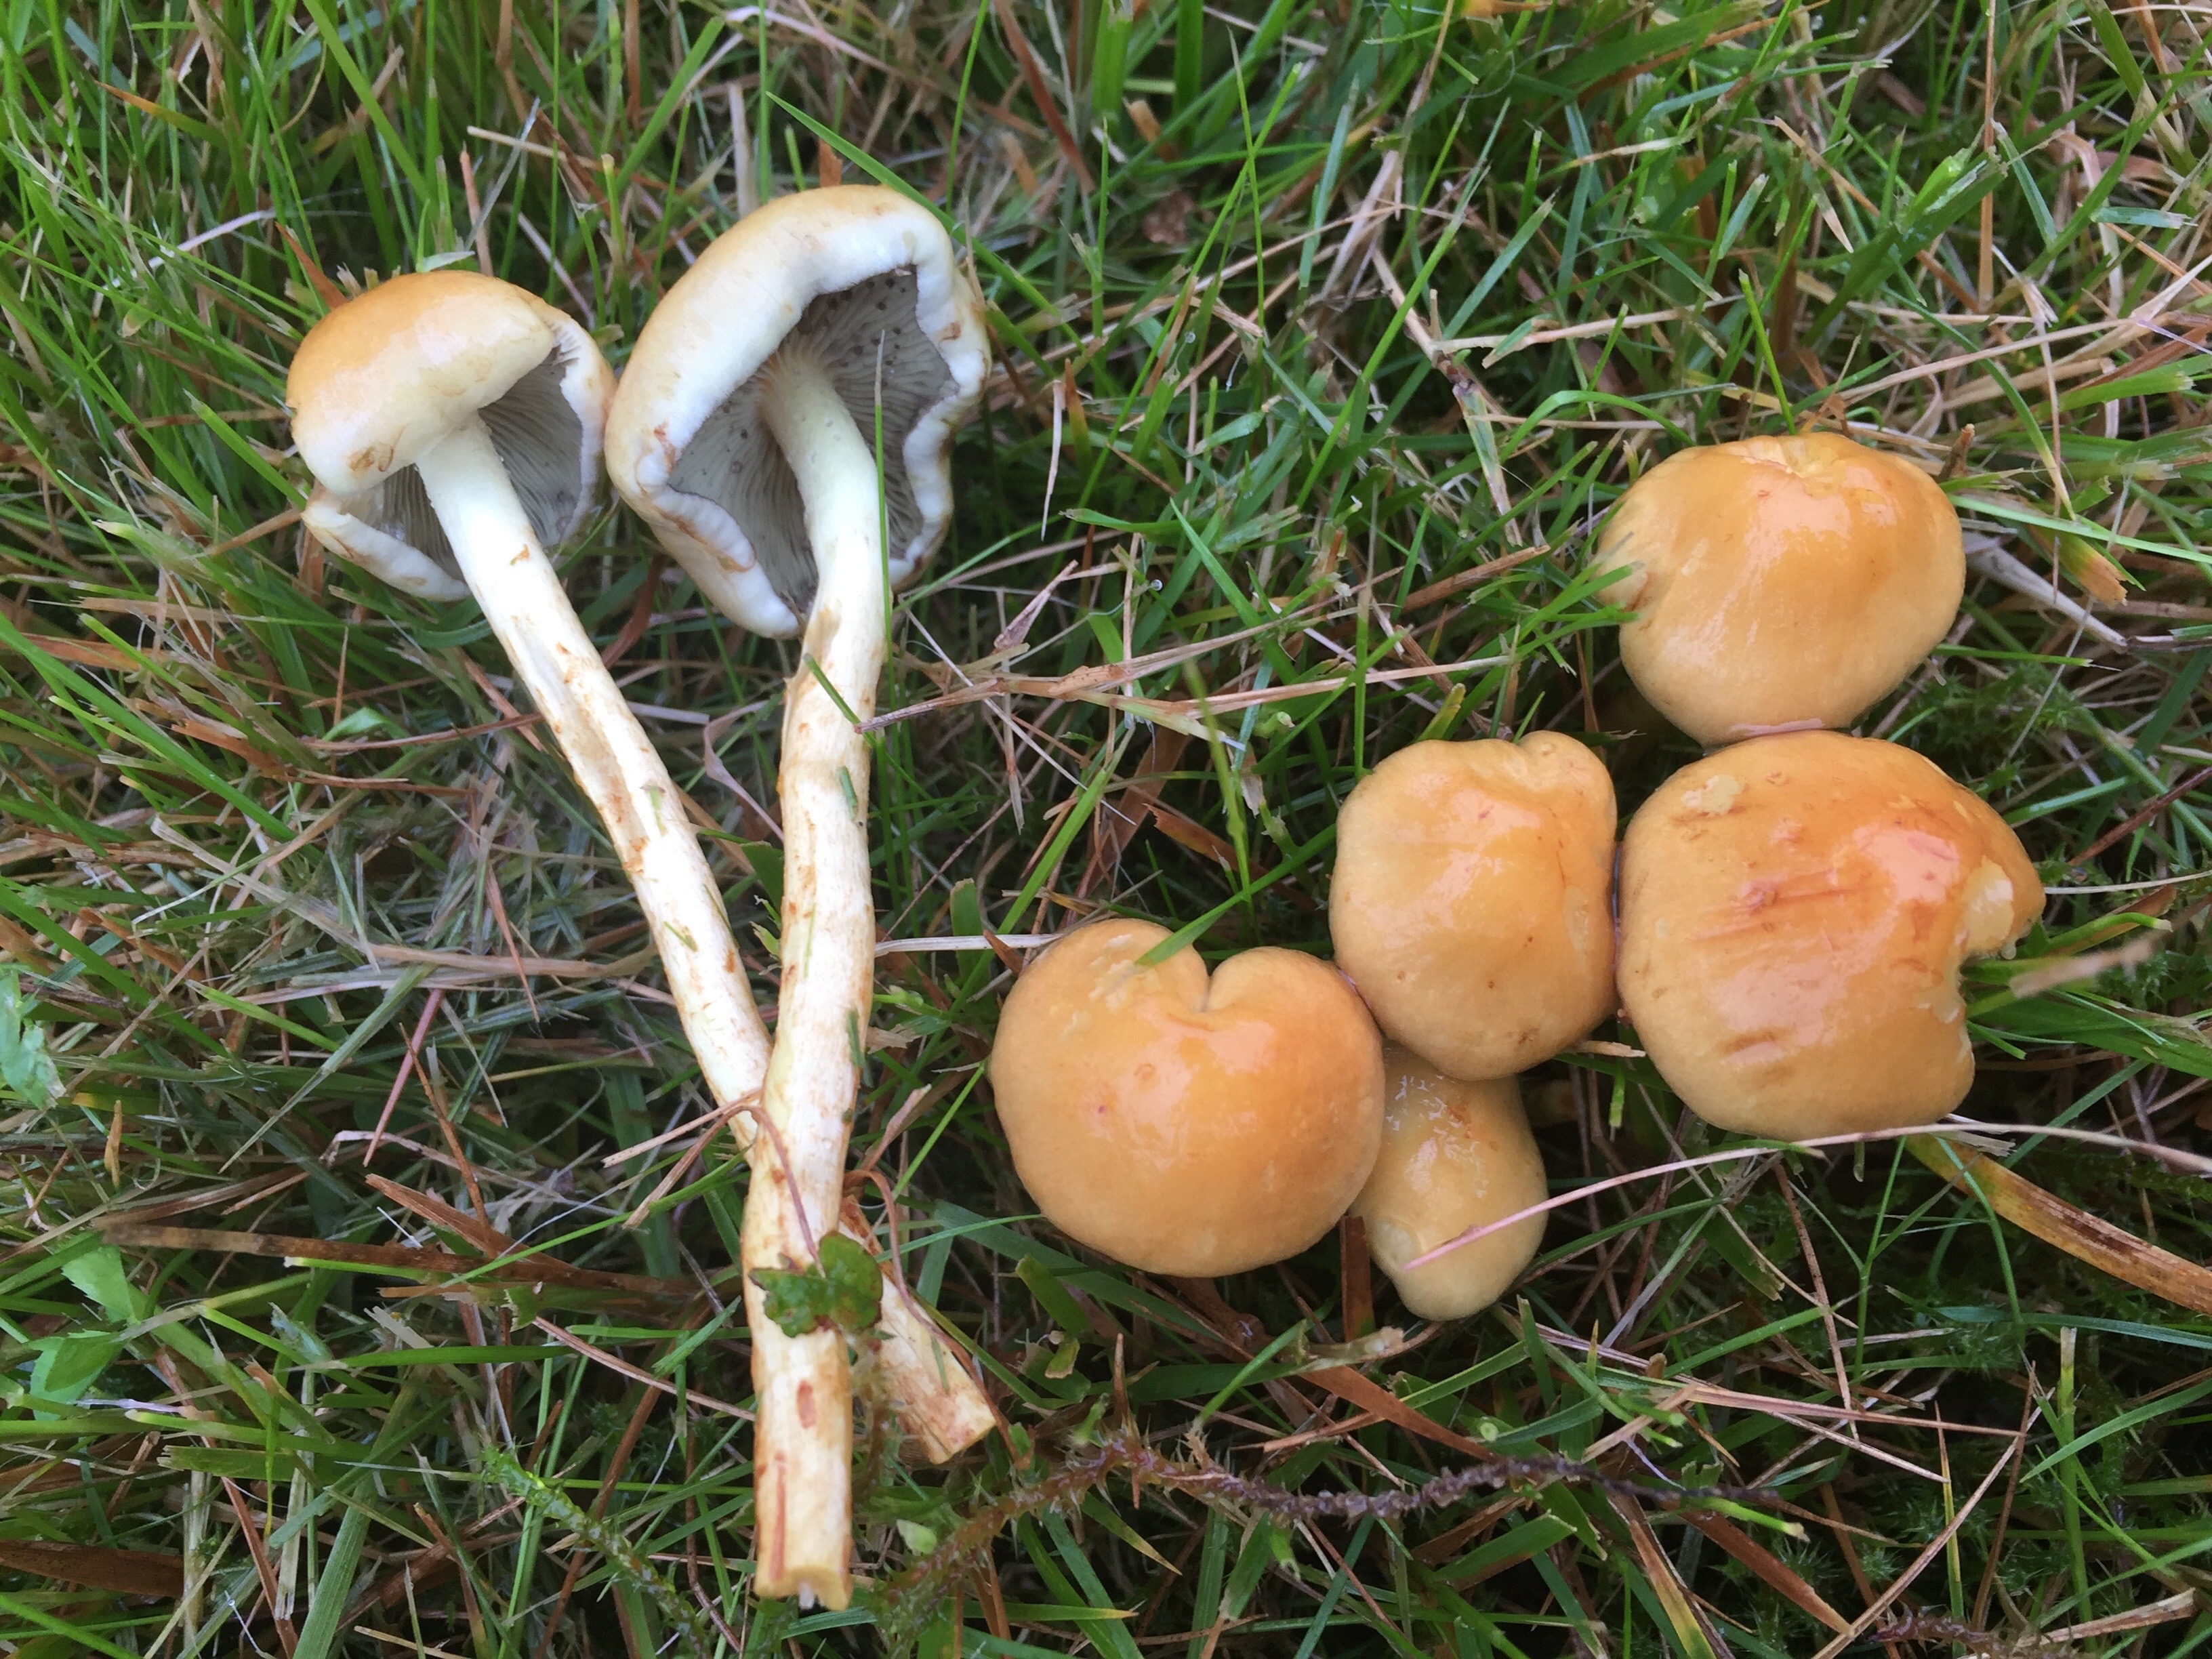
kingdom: Fungi
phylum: Basidiomycota
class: Agaricomycetes
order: Agaricales
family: Strophariaceae
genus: Hypholoma
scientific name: Hypholoma fasciculare
